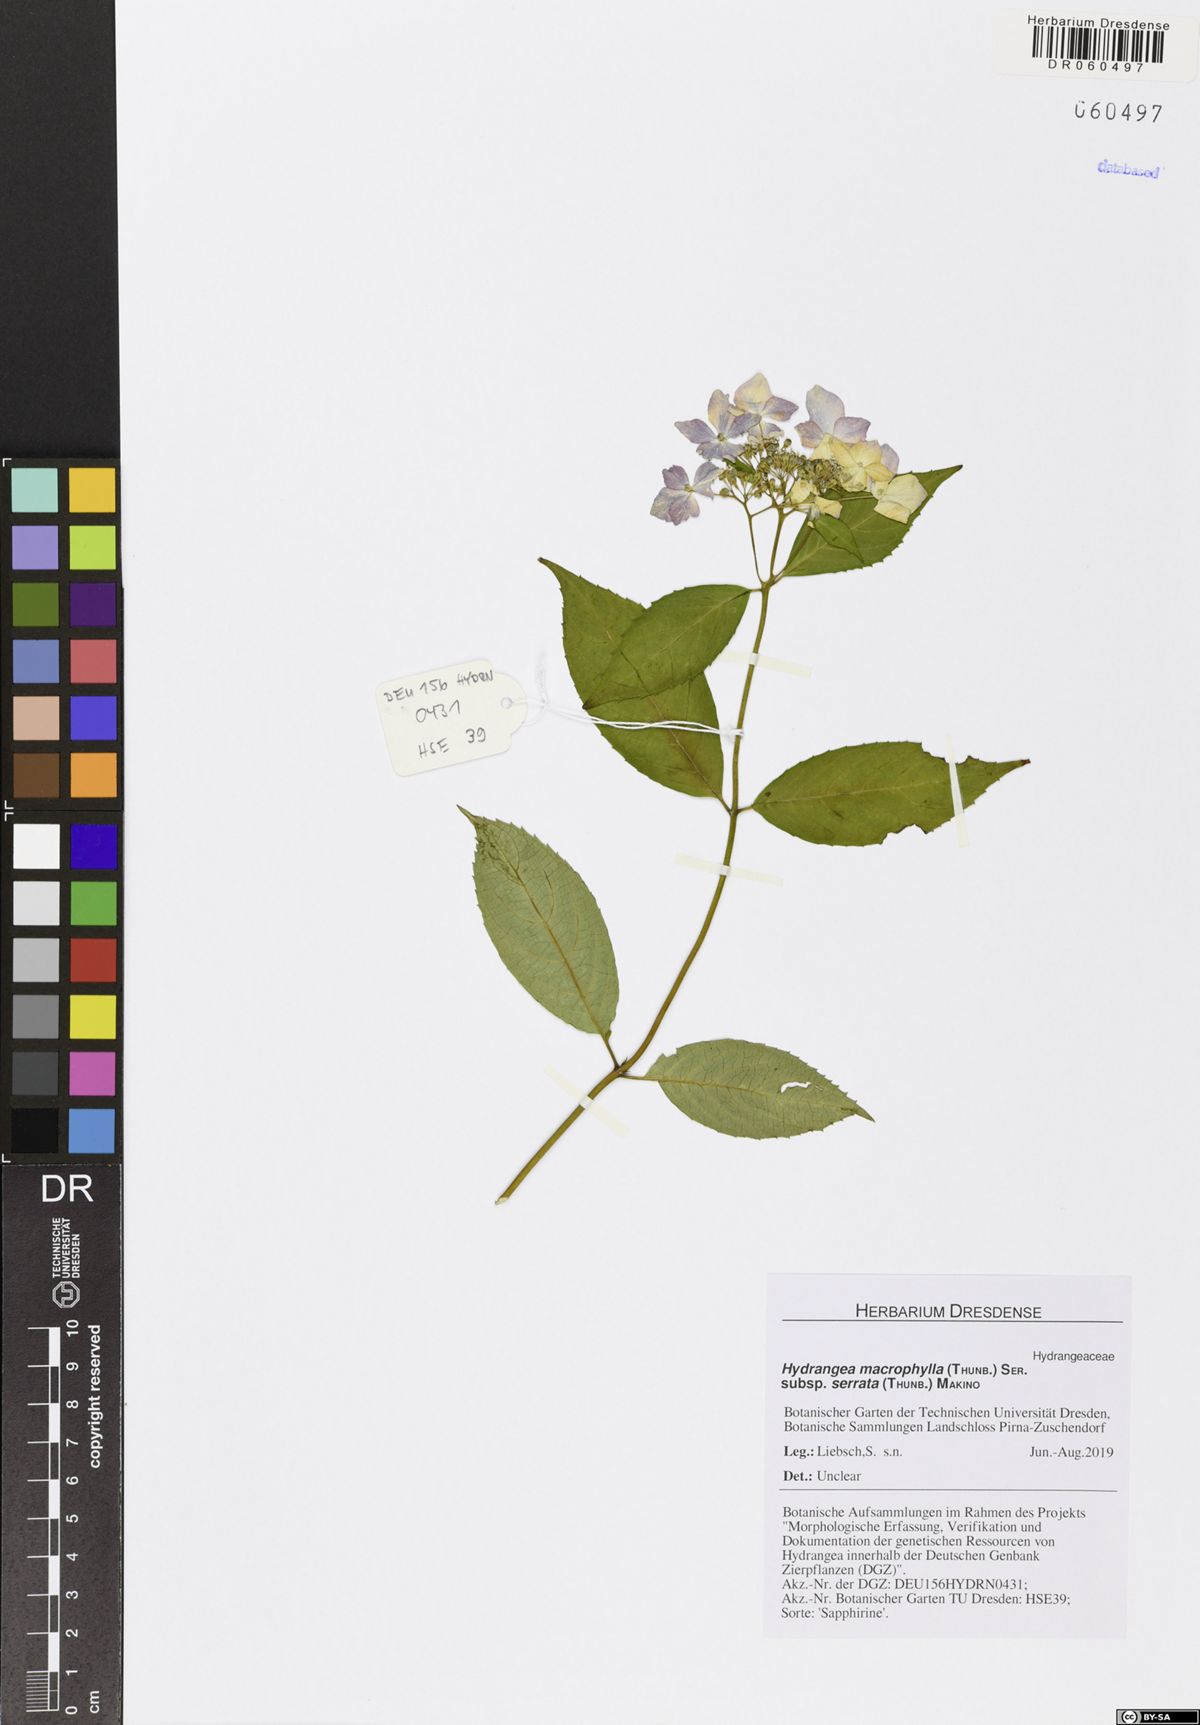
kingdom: Plantae
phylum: Tracheophyta
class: Magnoliopsida
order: Cornales
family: Hydrangeaceae
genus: Hydrangea
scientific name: Hydrangea serrata
